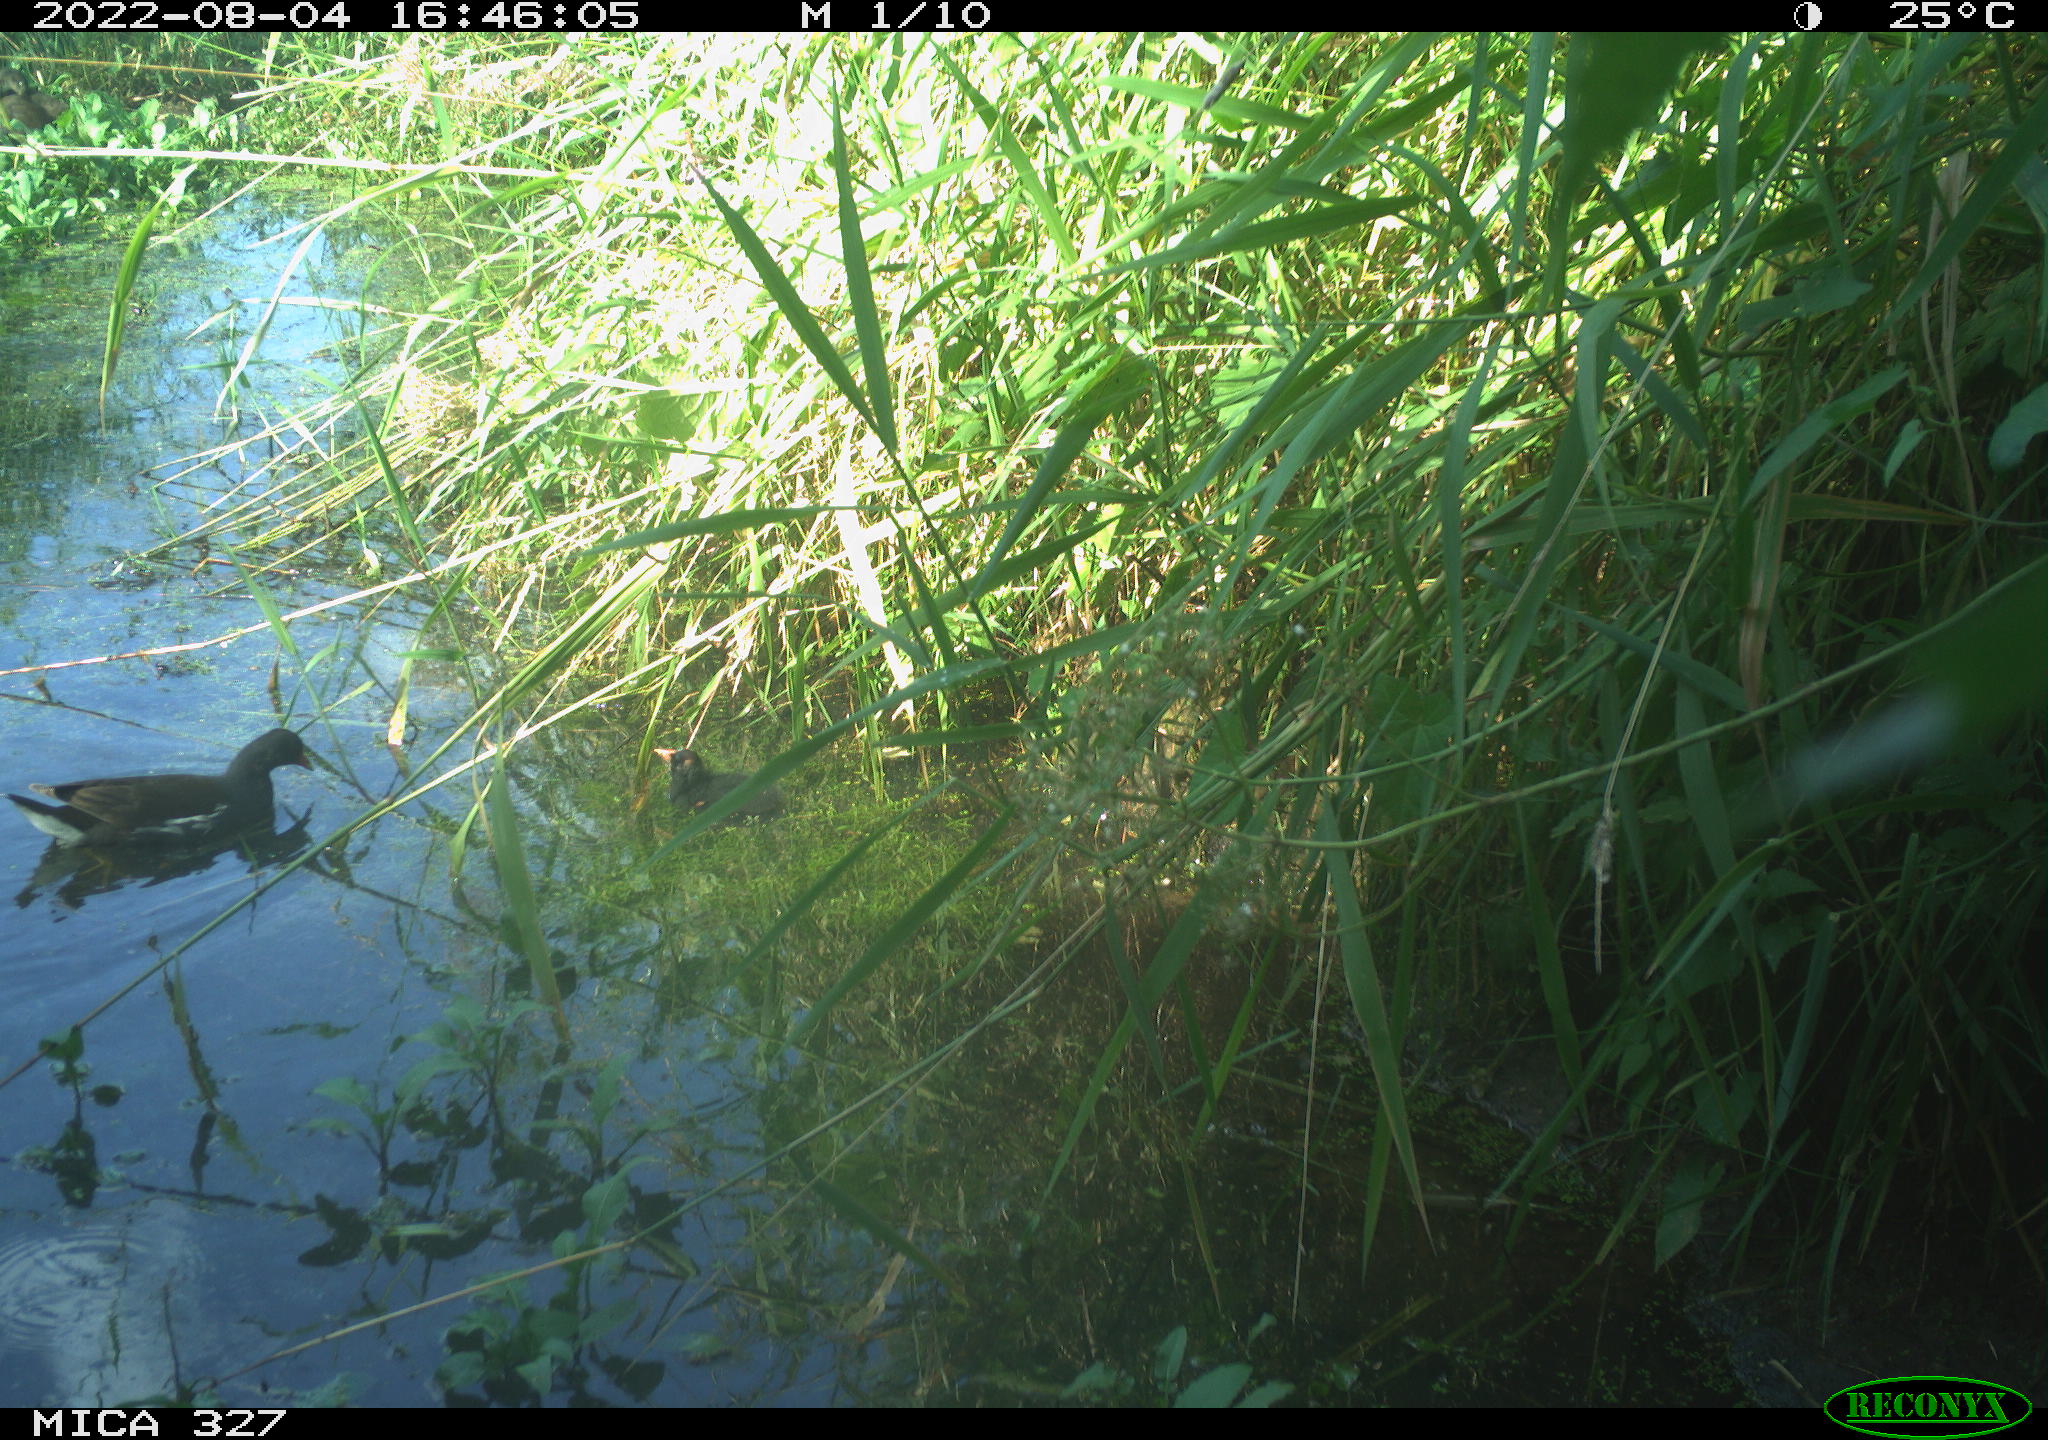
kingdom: Animalia
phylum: Chordata
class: Aves
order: Gruiformes
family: Rallidae
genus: Gallinula
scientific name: Gallinula chloropus
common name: Common moorhen
